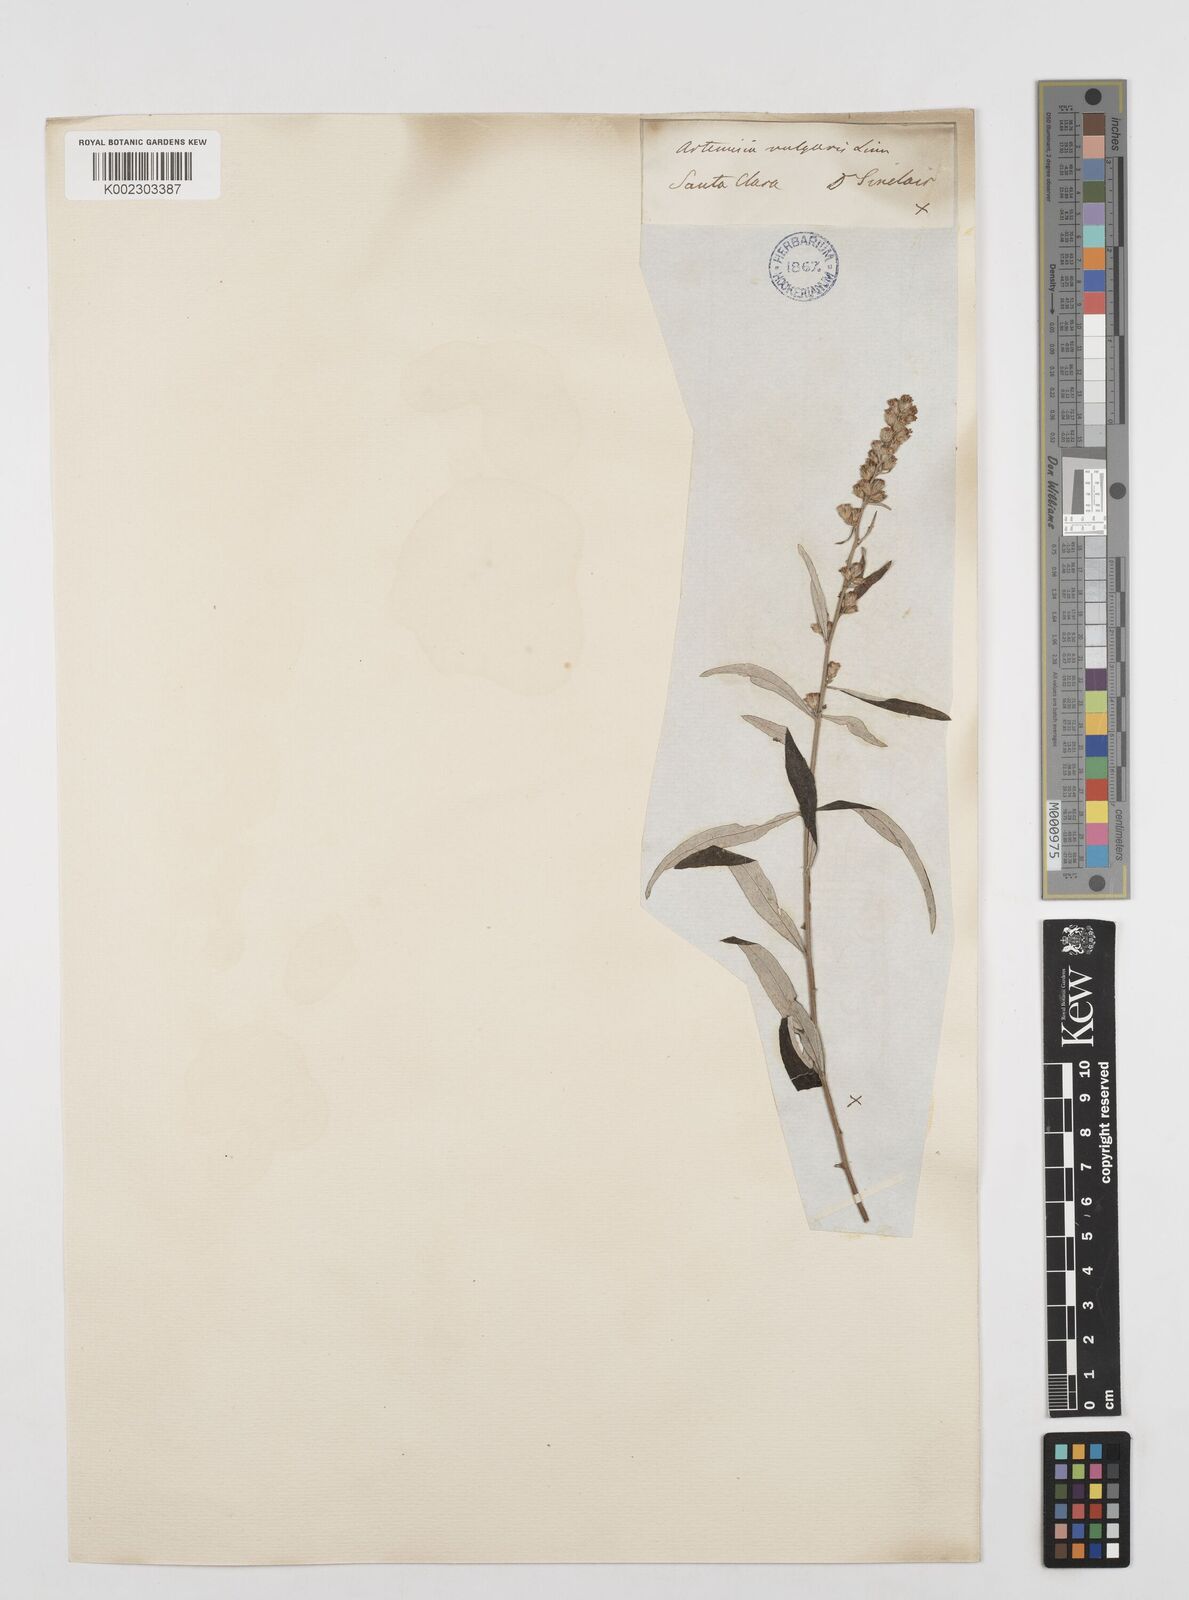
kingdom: Plantae
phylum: Tracheophyta
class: Magnoliopsida
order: Asterales
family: Asteraceae
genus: Artemisia
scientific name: Artemisia
